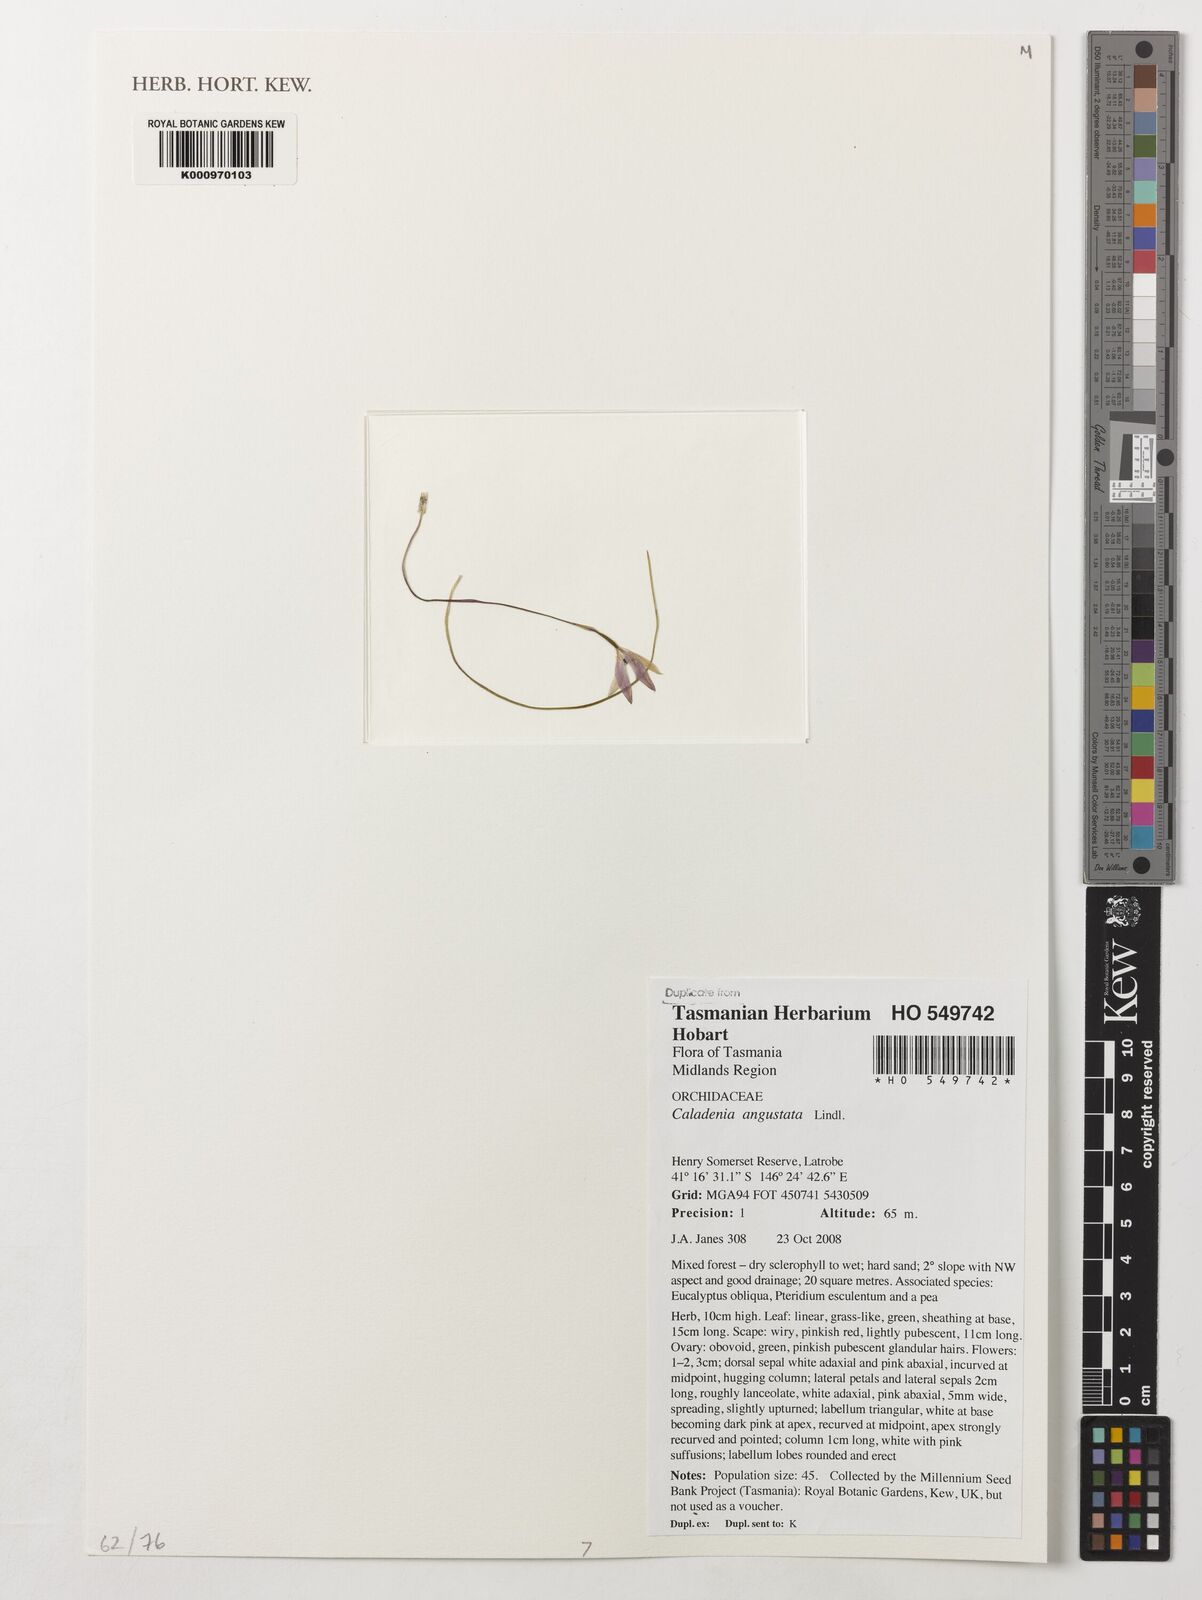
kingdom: Plantae
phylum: Tracheophyta
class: Liliopsida
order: Asparagales
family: Orchidaceae
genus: Caladenia
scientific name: Caladenia angustata
